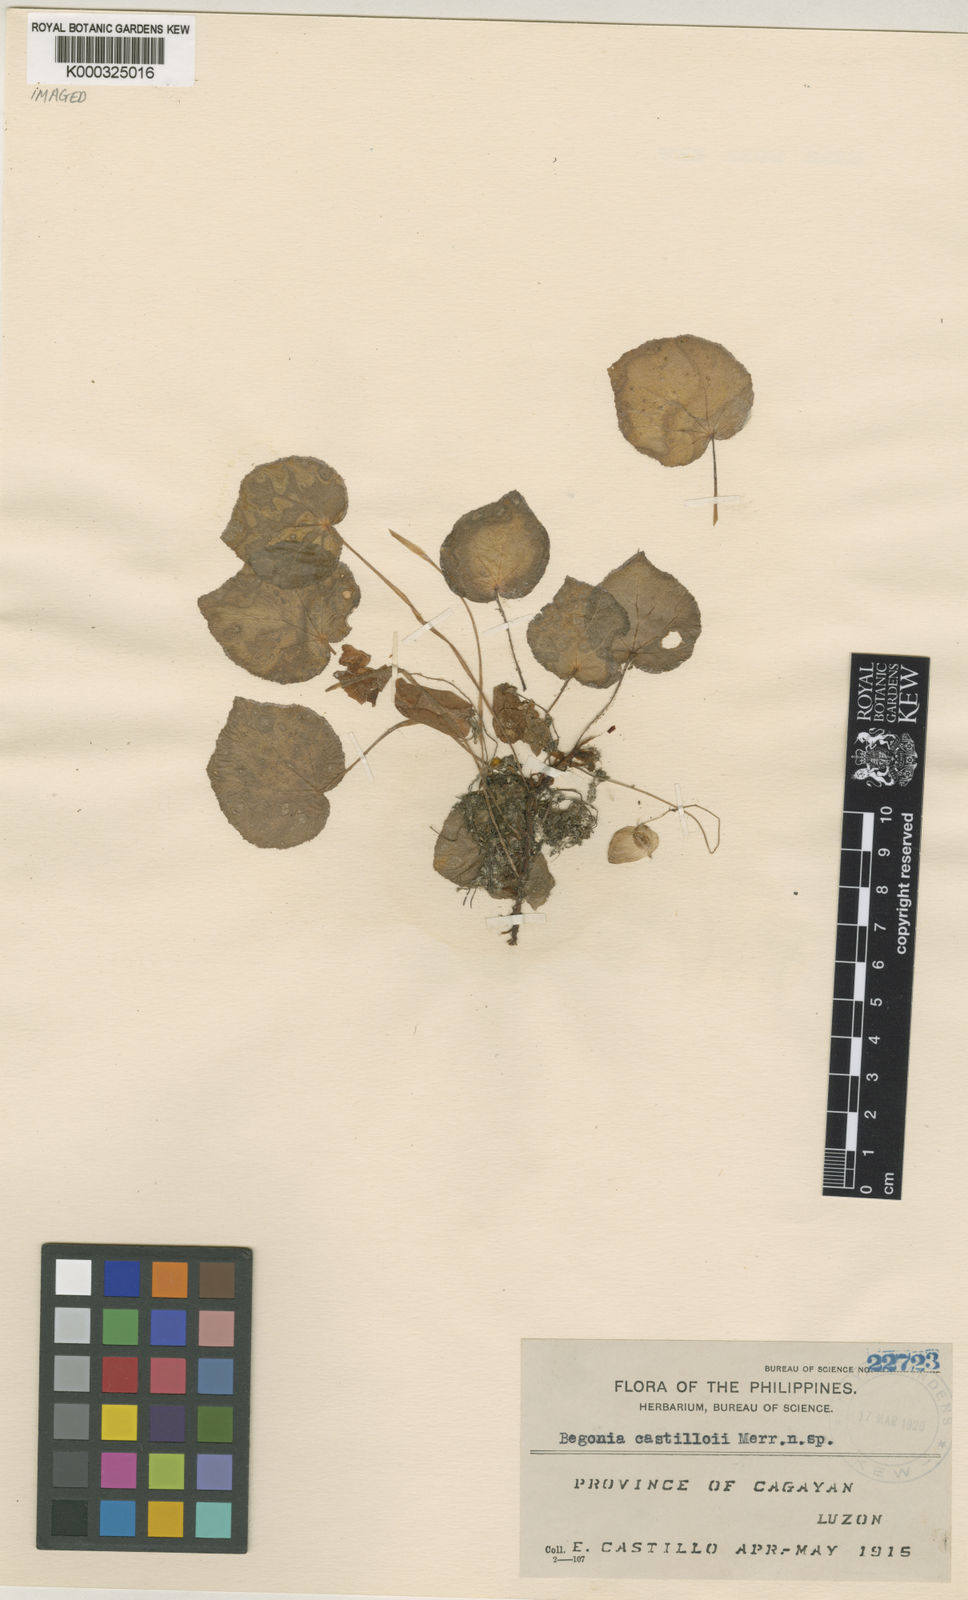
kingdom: Plantae
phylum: Tracheophyta
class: Magnoliopsida
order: Cucurbitales
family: Begoniaceae
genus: Begonia
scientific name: Begonia castilloi
